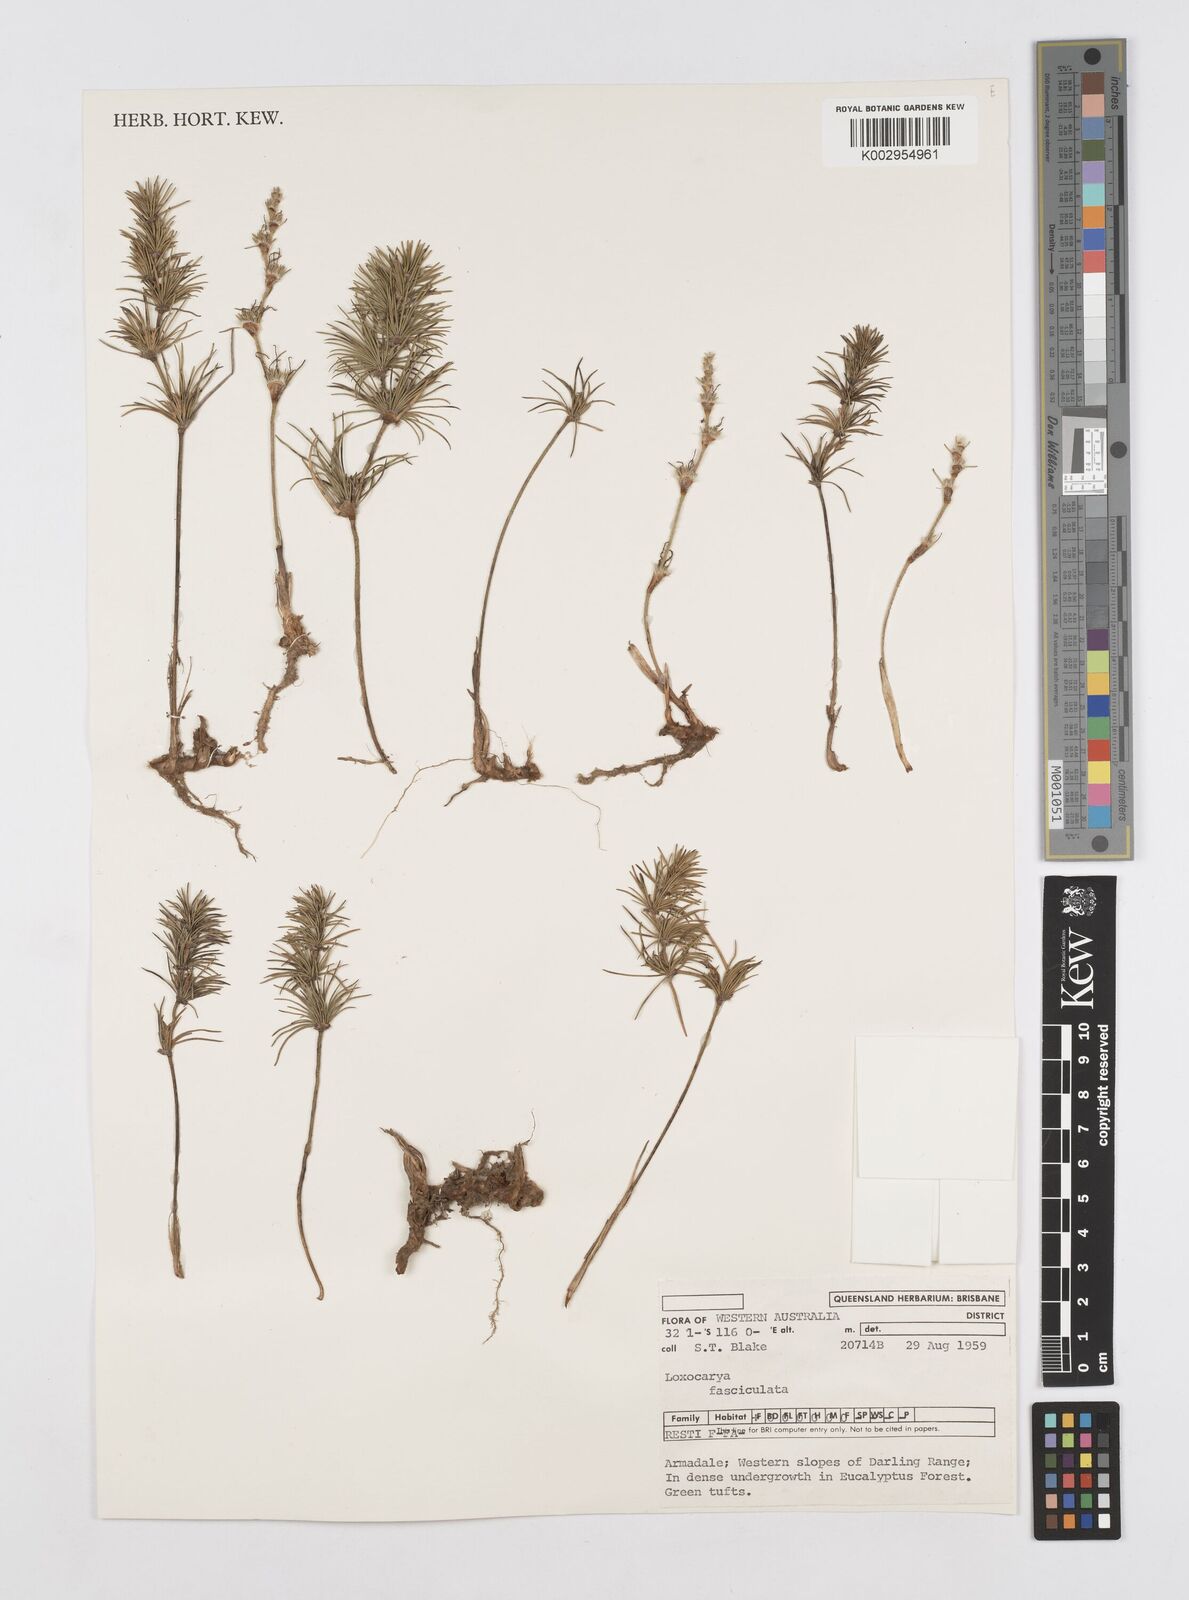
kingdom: Plantae
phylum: Tracheophyta
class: Liliopsida
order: Poales
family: Restionaceae
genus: Desmocladus
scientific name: Desmocladus fasciculatus
